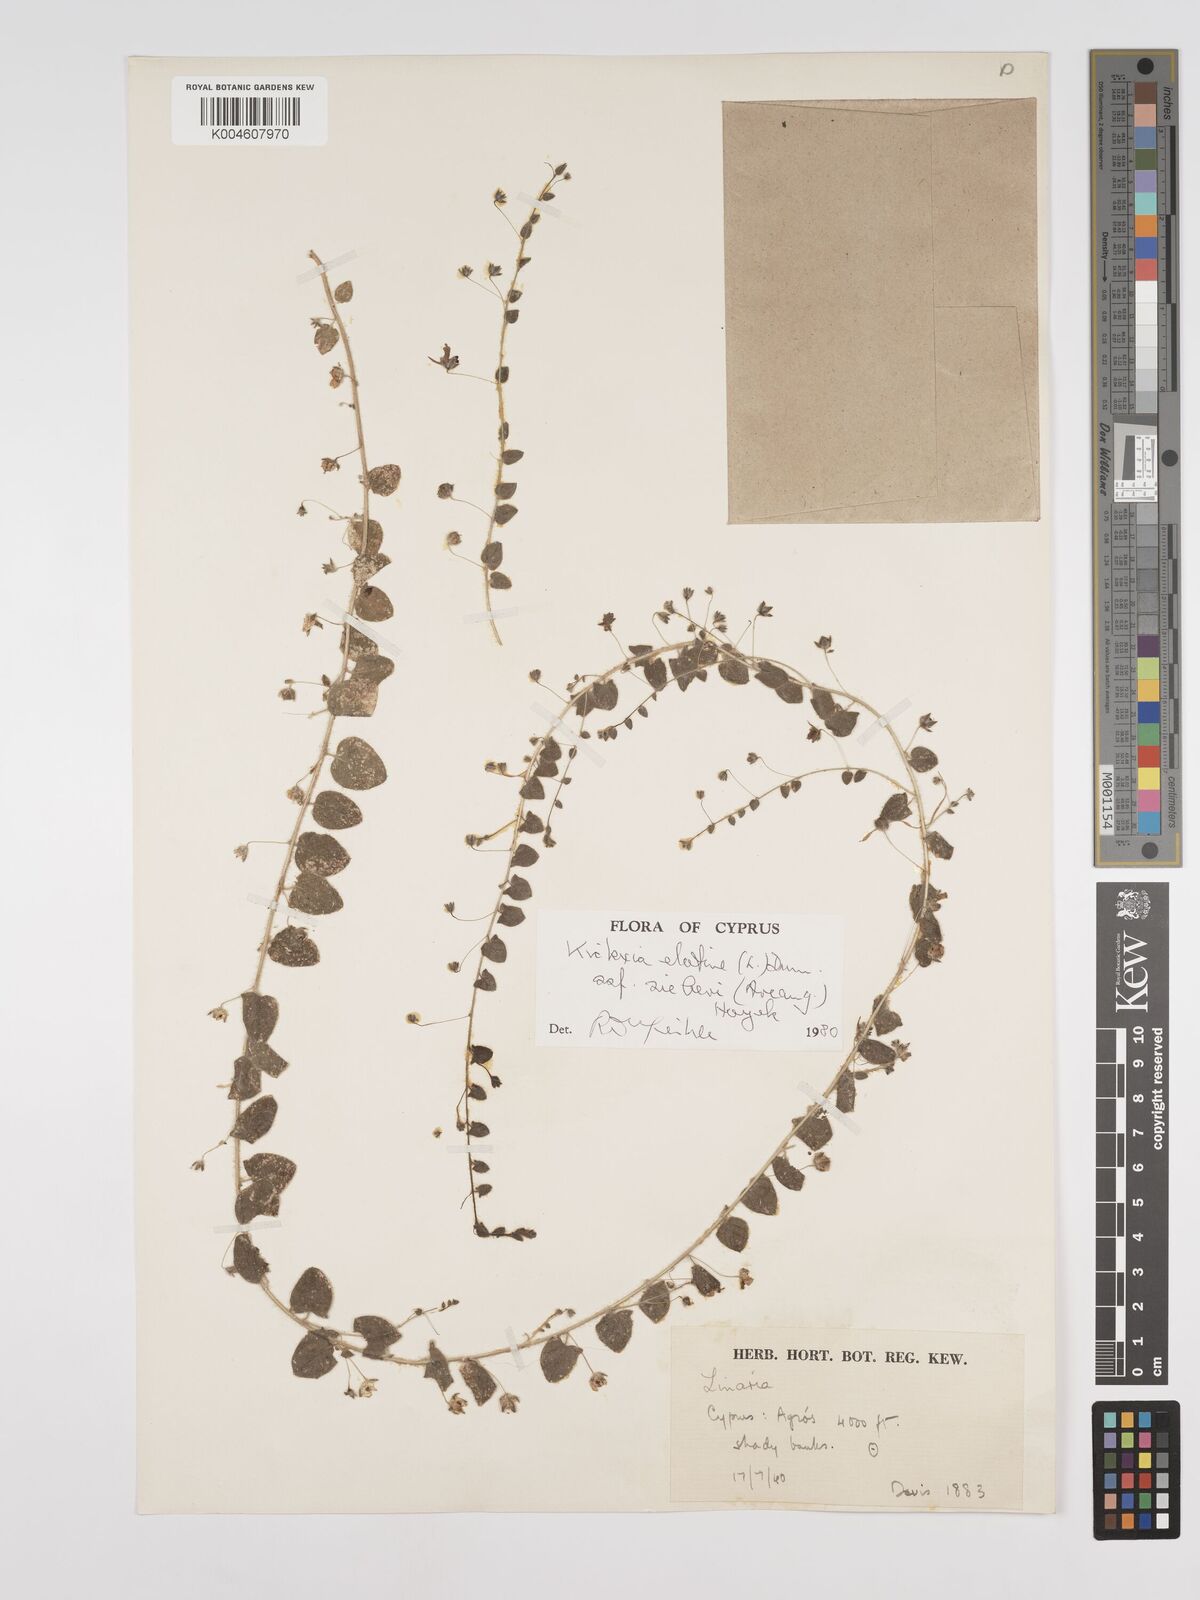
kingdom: Plantae
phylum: Tracheophyta
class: Magnoliopsida
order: Lamiales
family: Plantaginaceae
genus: Kickxia
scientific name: Kickxia
